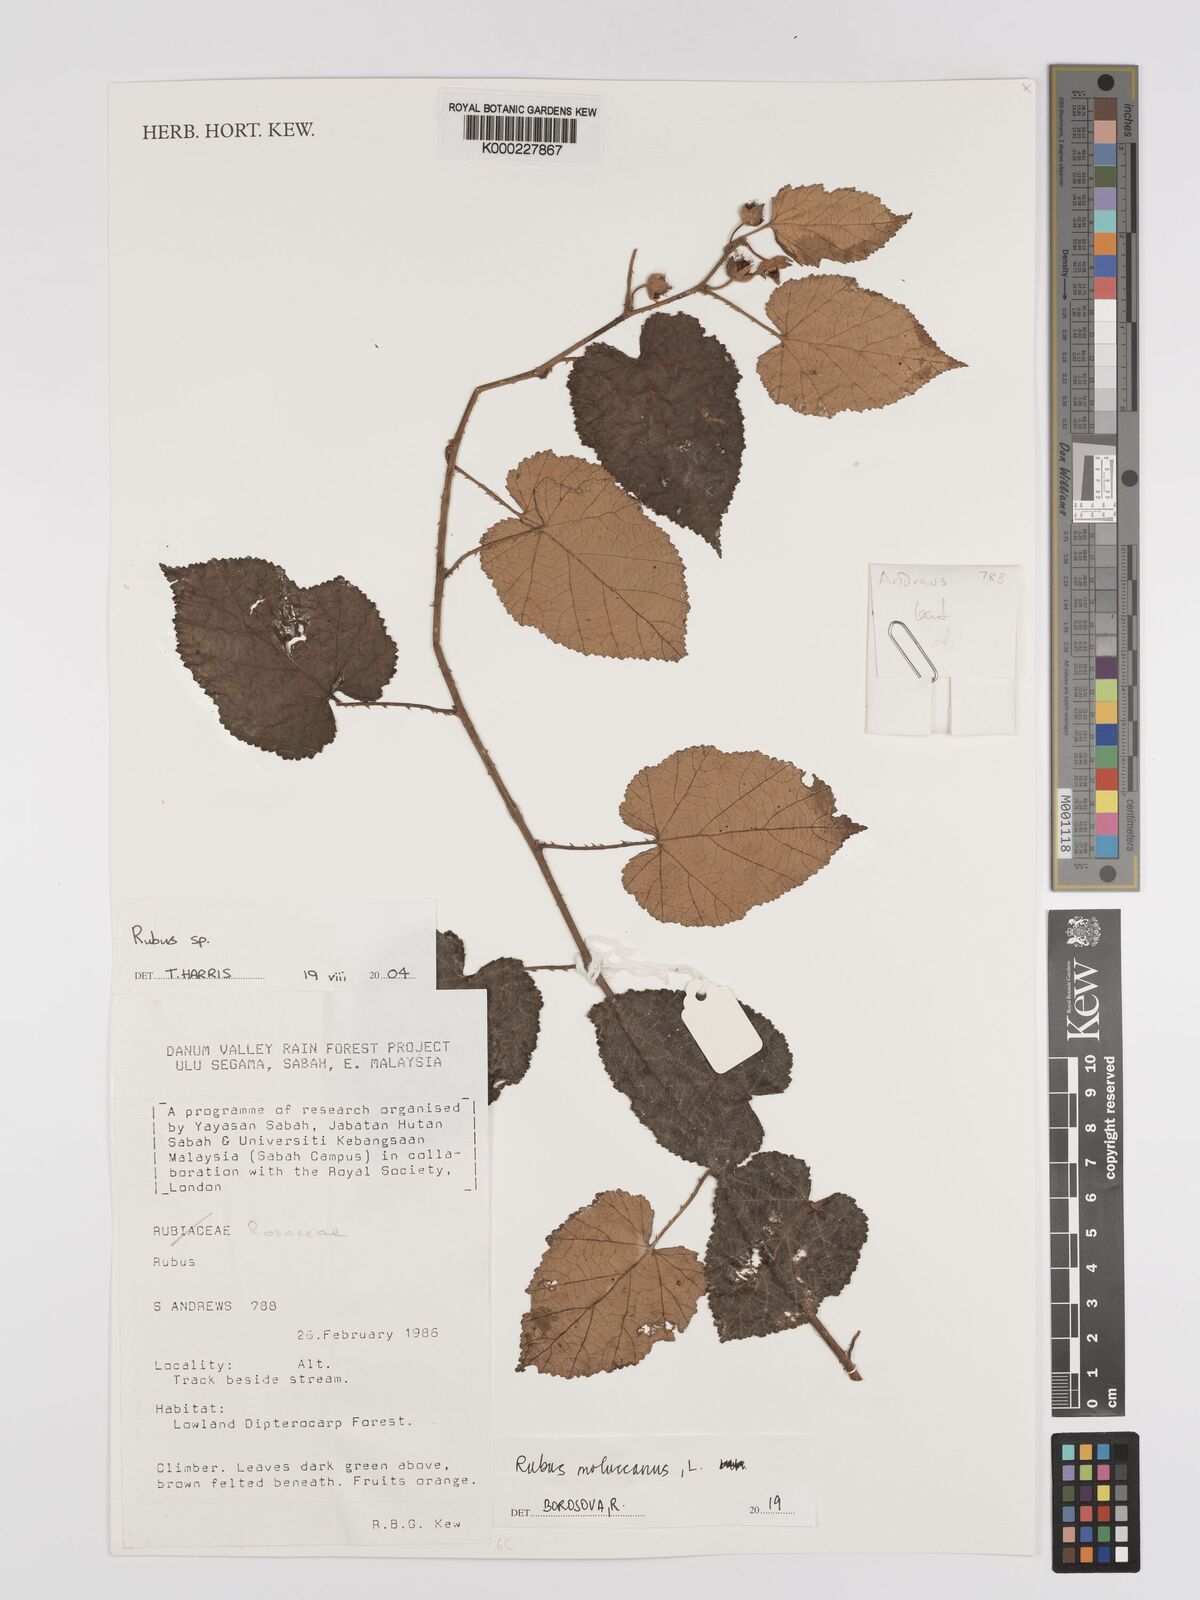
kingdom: Plantae
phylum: Tracheophyta
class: Magnoliopsida
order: Rosales
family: Rosaceae
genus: Rubus
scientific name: Rubus moluccanus
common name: Wild raspberry
